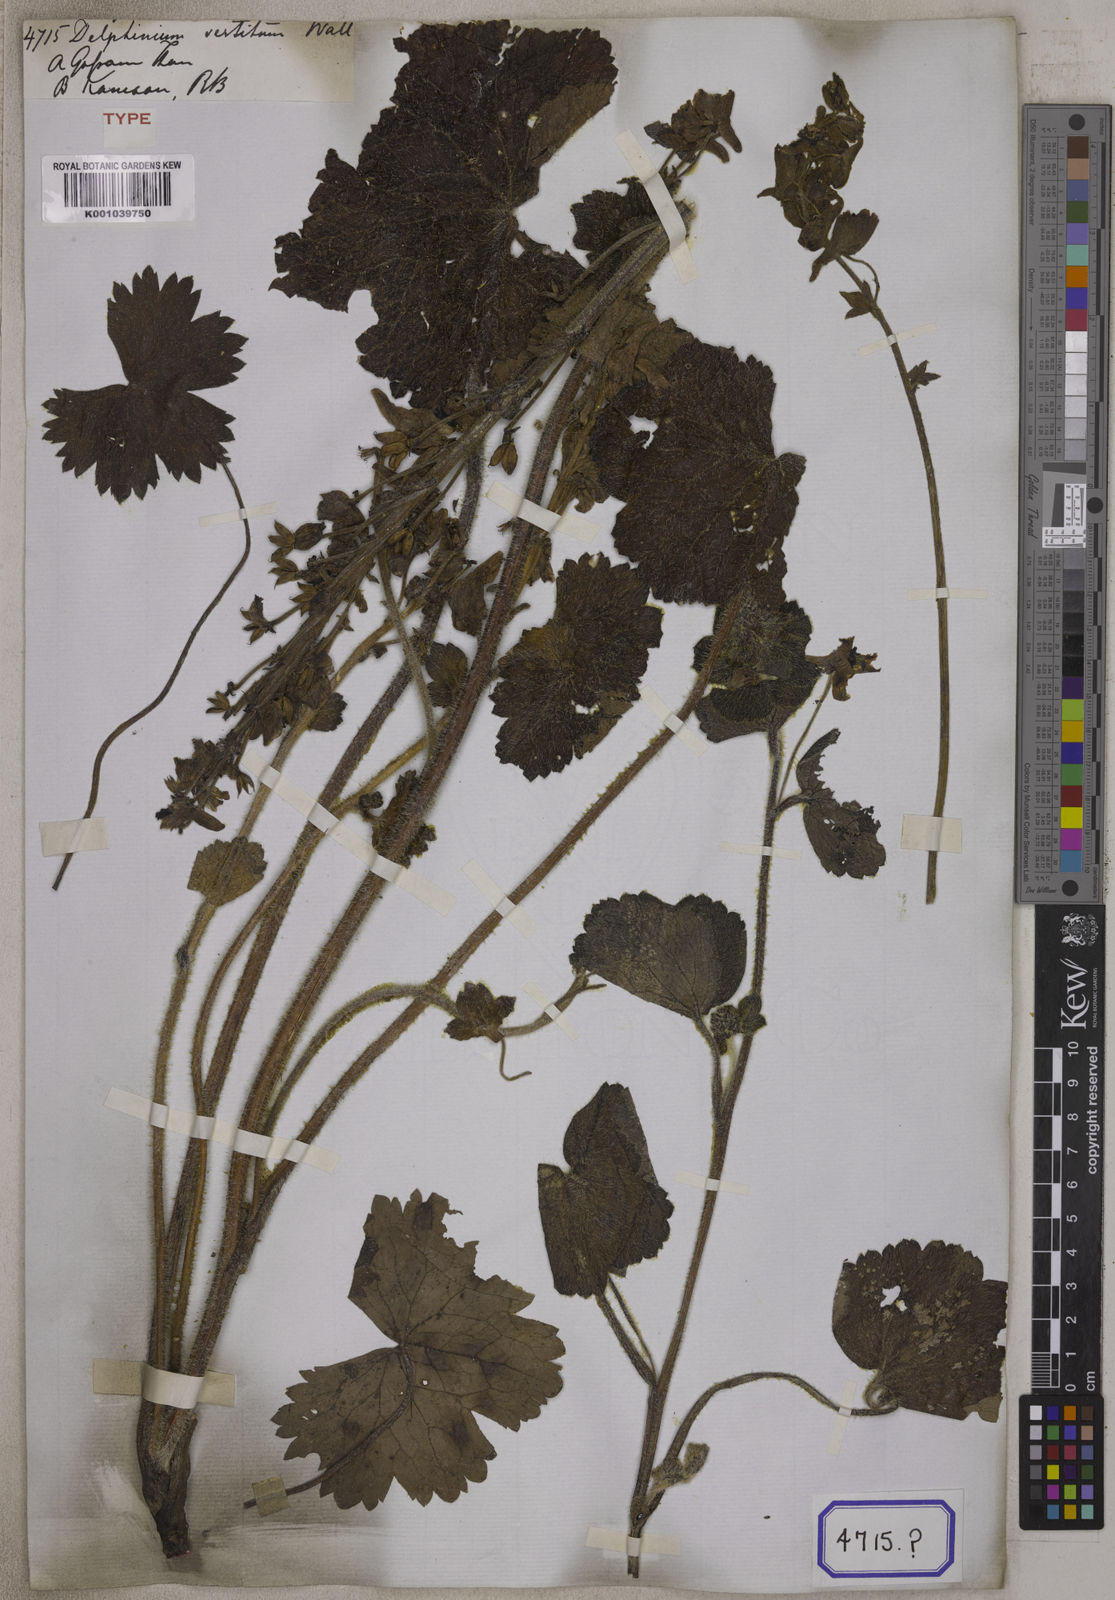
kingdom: Plantae
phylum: Tracheophyta
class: Magnoliopsida
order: Ranunculales
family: Ranunculaceae
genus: Delphinium
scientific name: Delphinium
